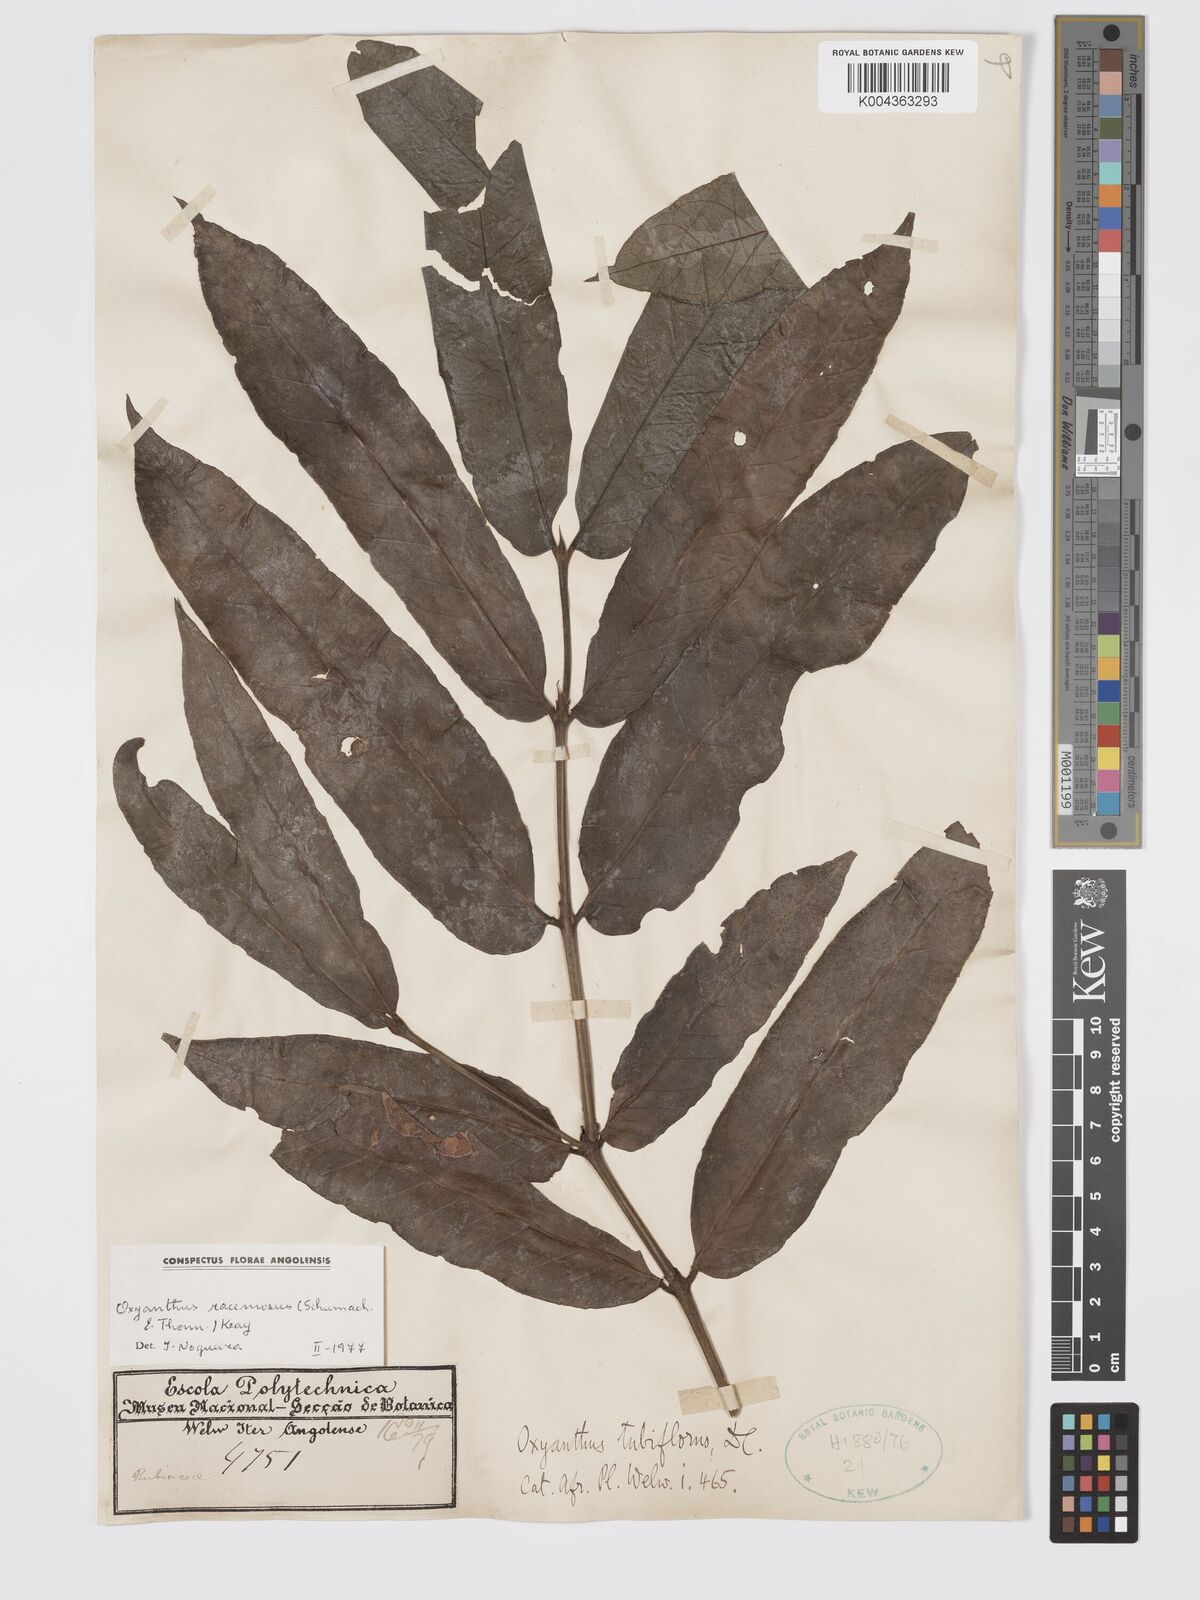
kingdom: Plantae
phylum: Tracheophyta
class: Magnoliopsida
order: Gentianales
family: Rubiaceae
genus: Oxyanthus
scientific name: Oxyanthus
